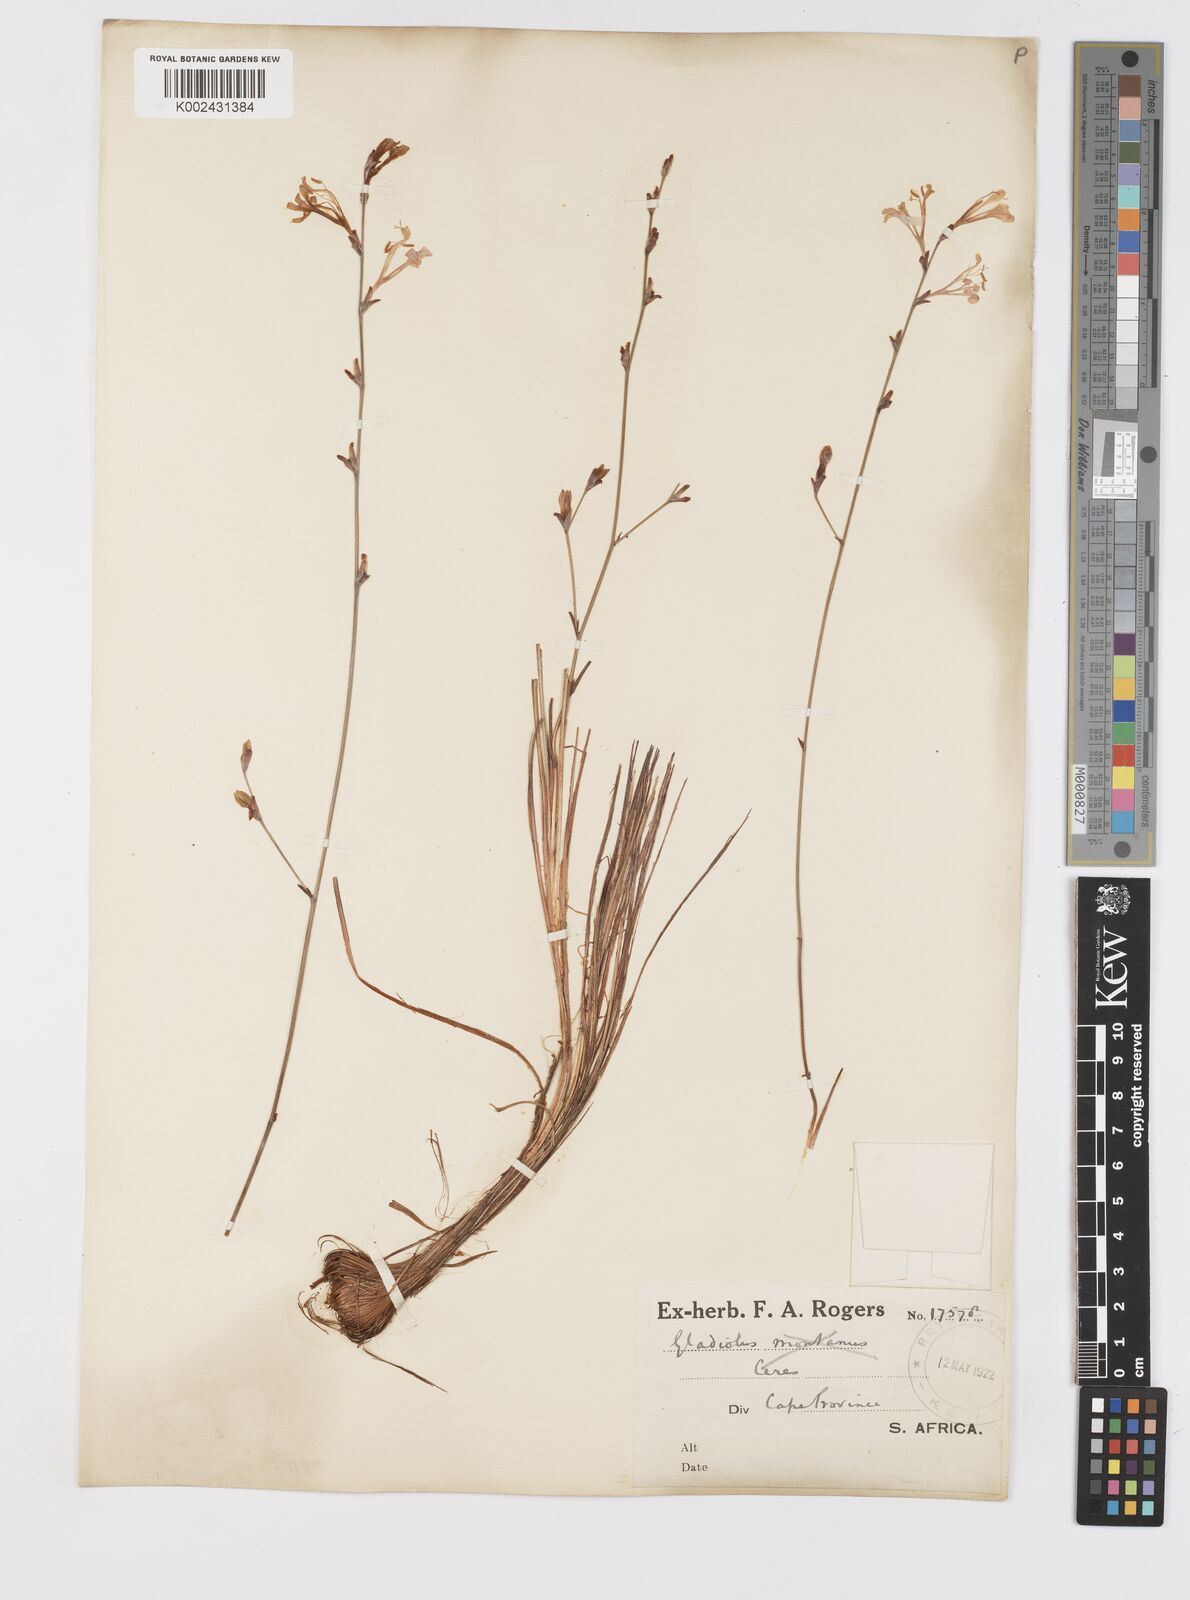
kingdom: Plantae
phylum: Tracheophyta
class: Liliopsida
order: Asparagales
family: Iridaceae
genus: Tritoniopsis
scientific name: Tritoniopsis ramosa
